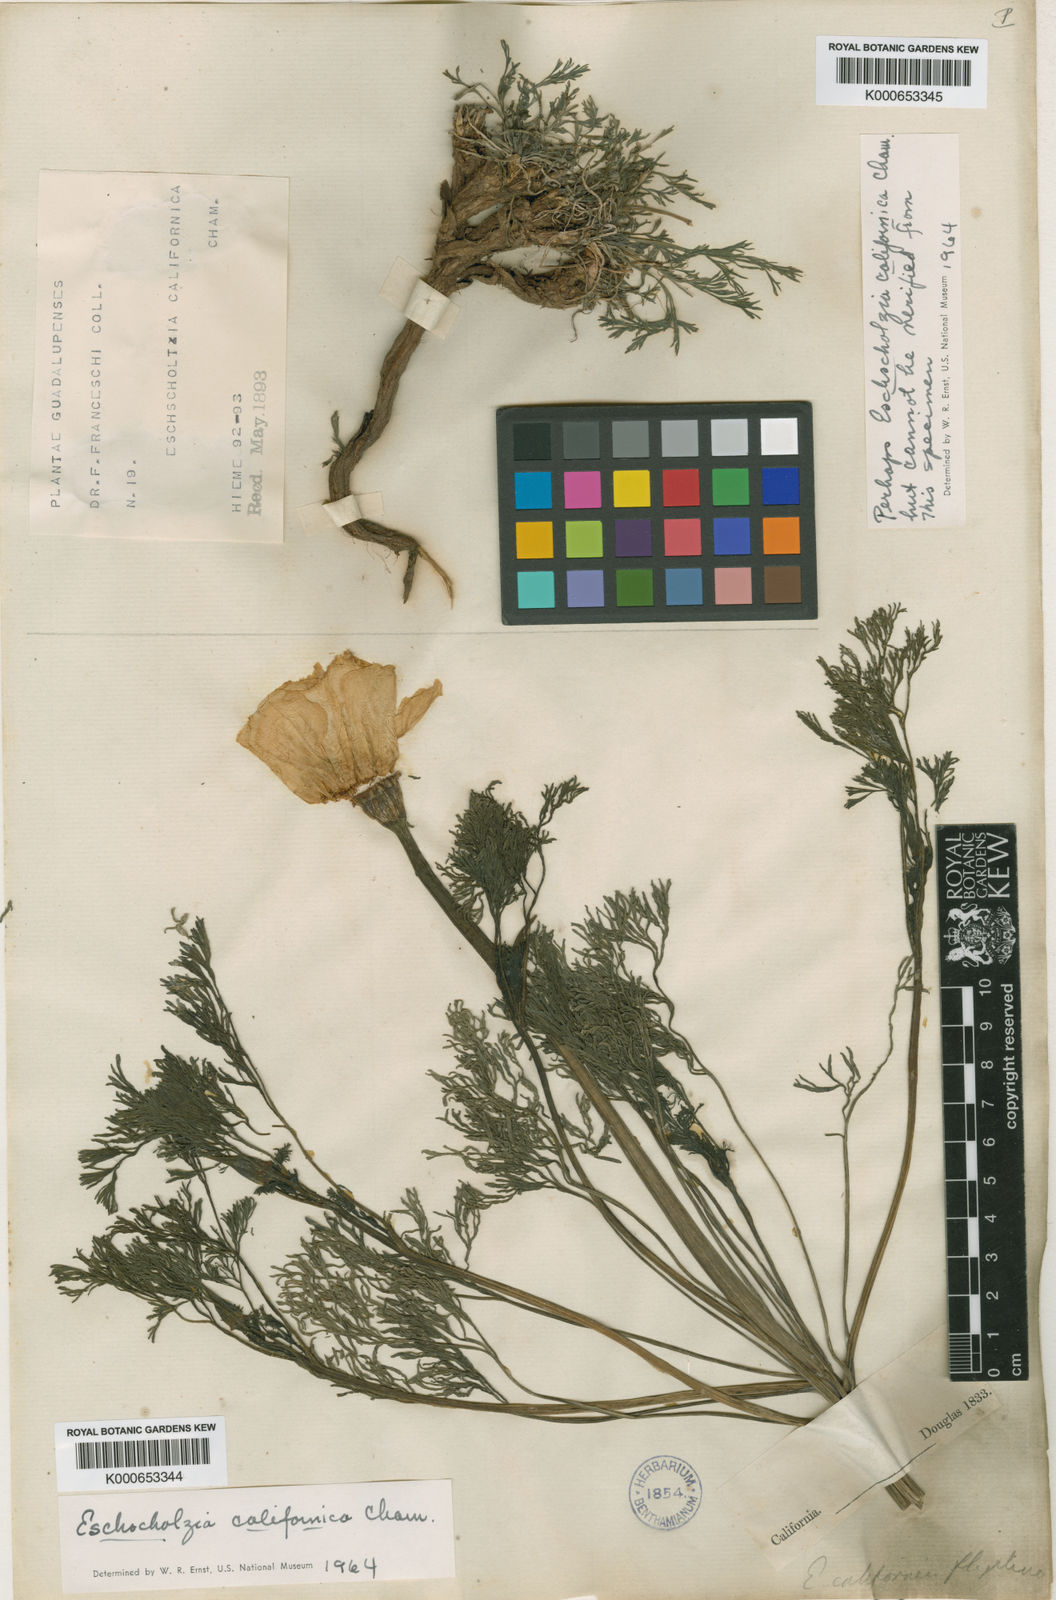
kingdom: Plantae
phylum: Tracheophyta
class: Magnoliopsida
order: Ranunculales
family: Papaveraceae
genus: Eschscholzia
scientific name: Eschscholzia californica
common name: California poppy
